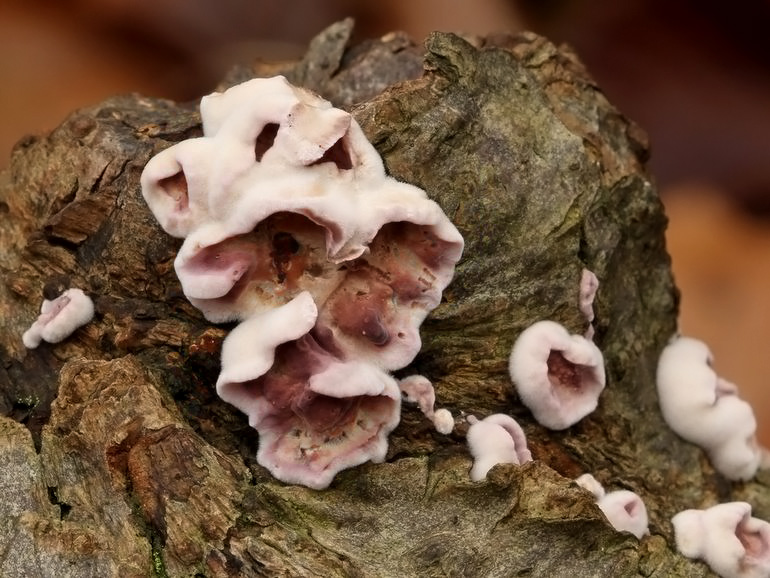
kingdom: Fungi
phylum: Basidiomycota
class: Agaricomycetes
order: Agaricales
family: Cyphellaceae
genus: Chondrostereum
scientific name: Chondrostereum purpureum
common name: purpurlædersvamp
